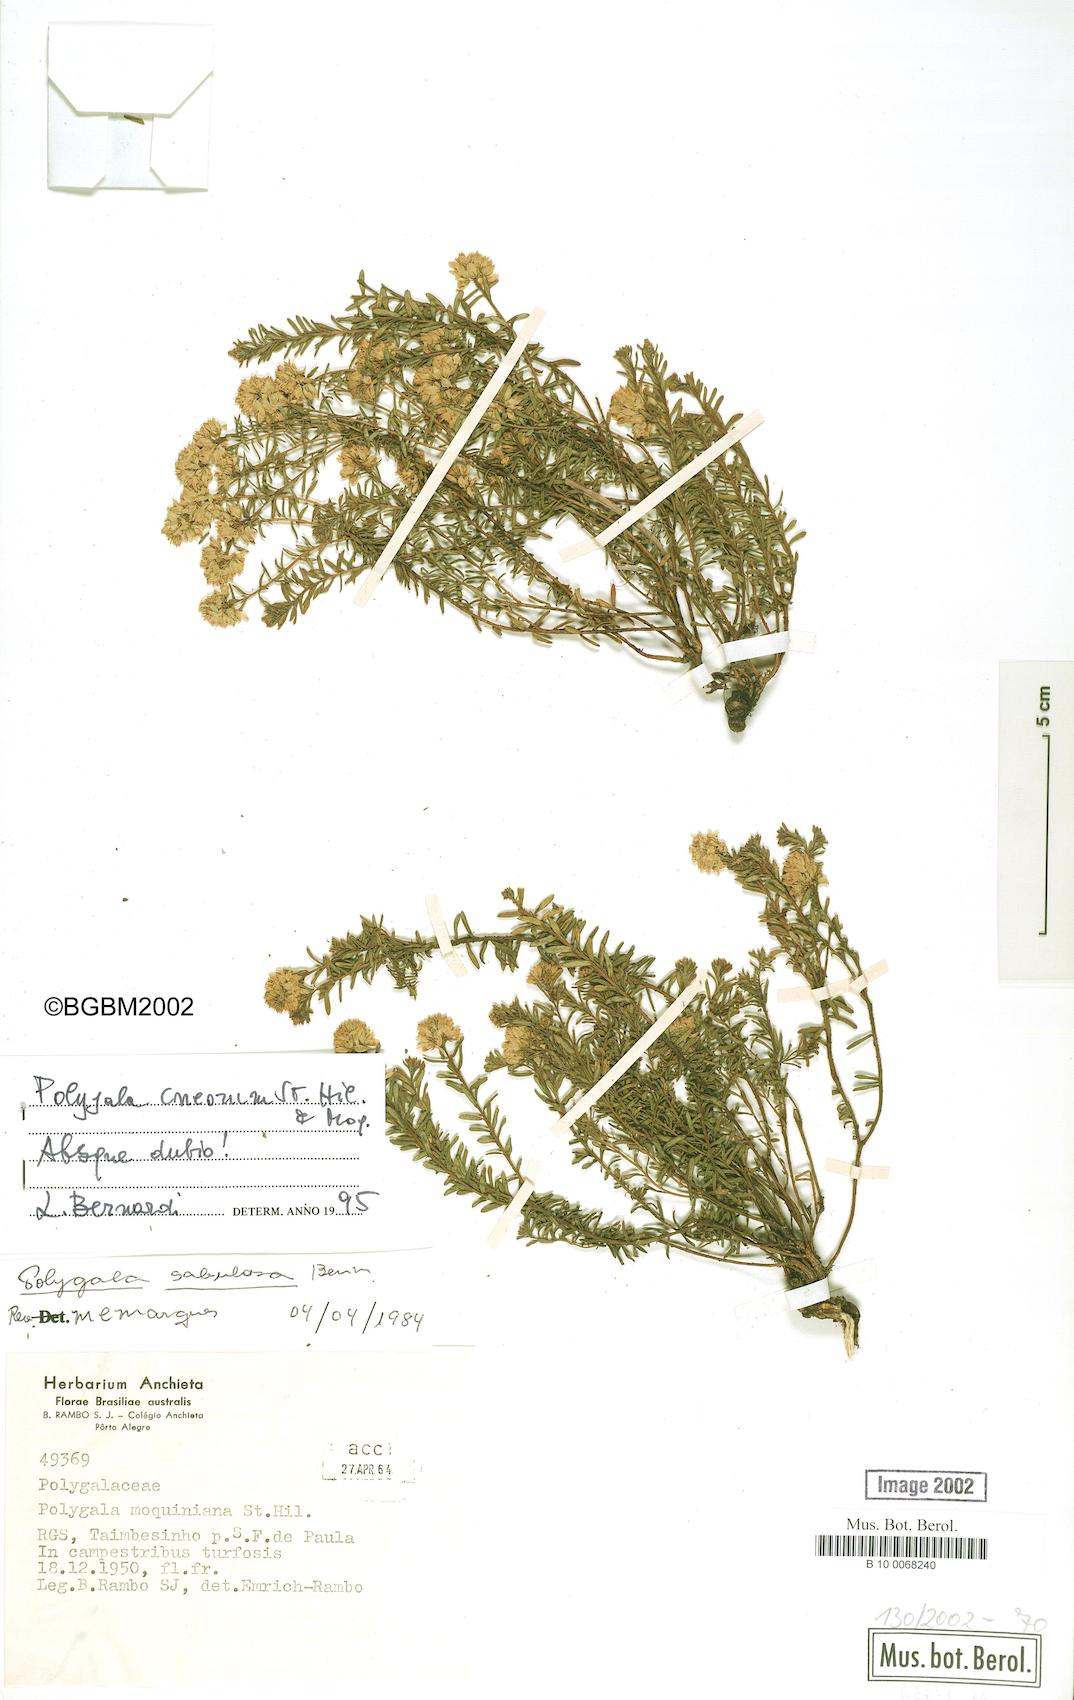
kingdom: Plantae
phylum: Tracheophyta
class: Magnoliopsida
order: Fabales
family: Polygalaceae
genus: Polygala
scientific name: Polygala cneorum
